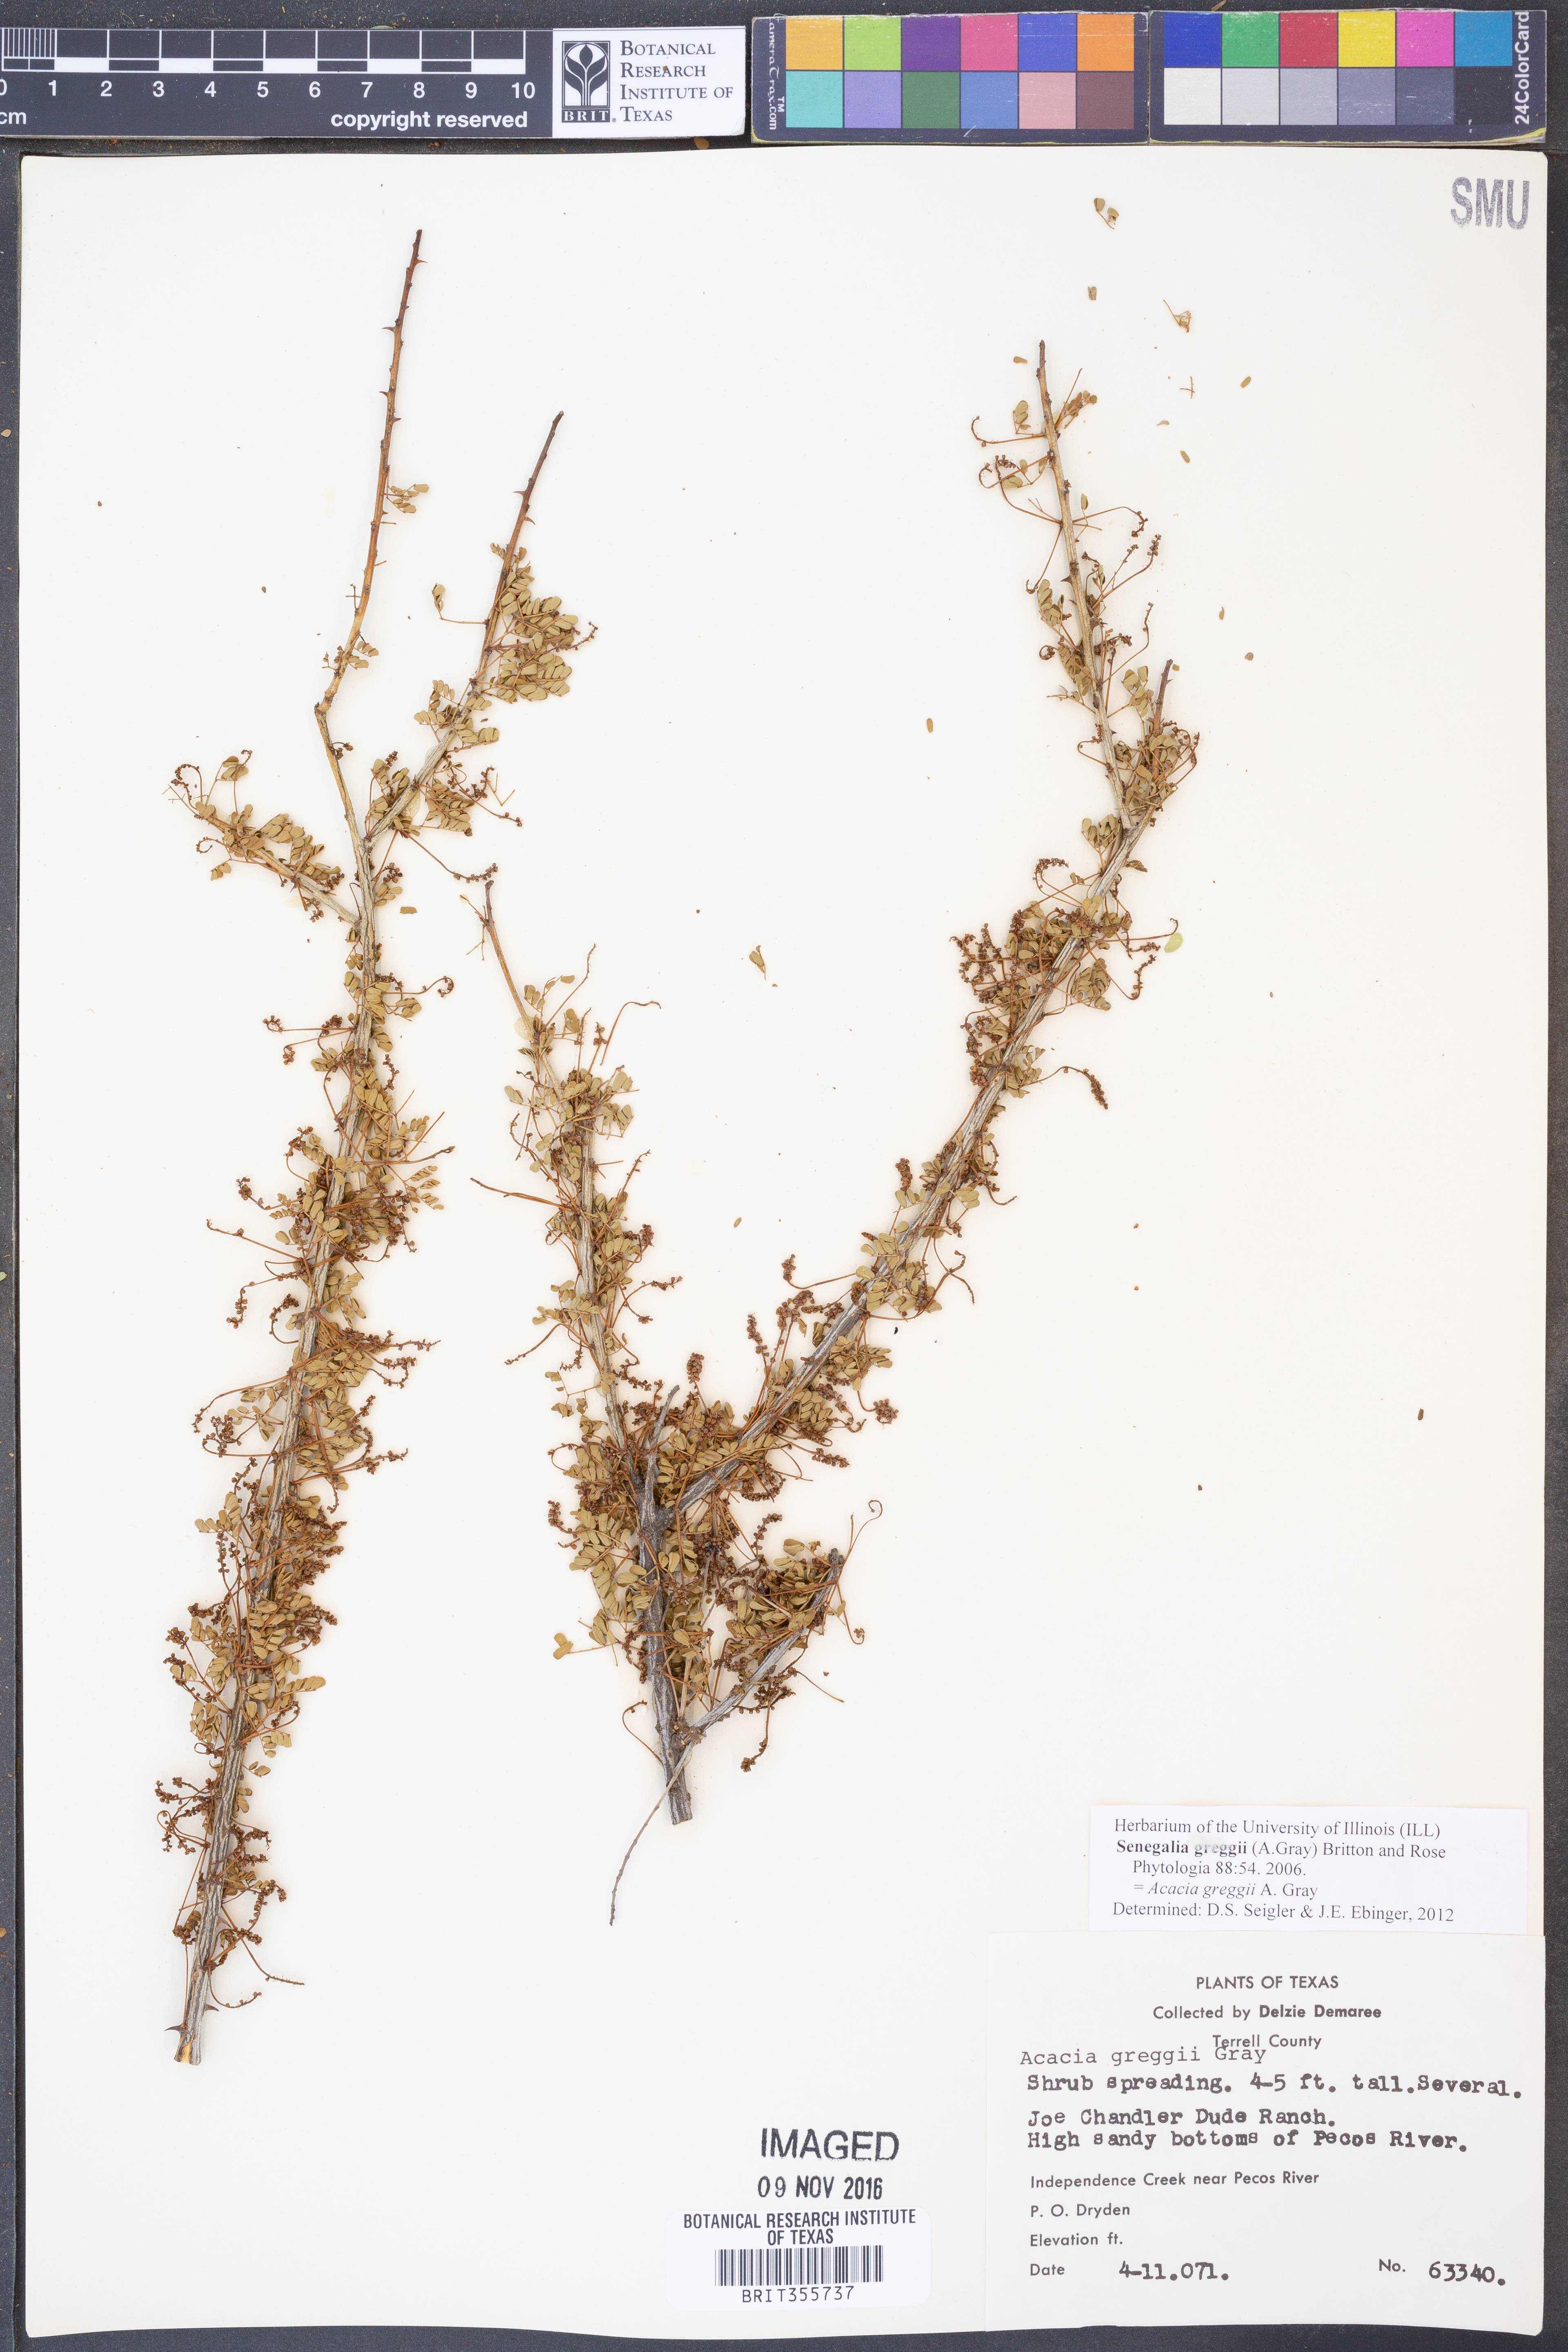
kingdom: Plantae
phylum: Tracheophyta
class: Magnoliopsida
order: Fabales
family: Fabaceae
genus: Senegalia
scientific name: Senegalia greggii
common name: Texas-mimosa
